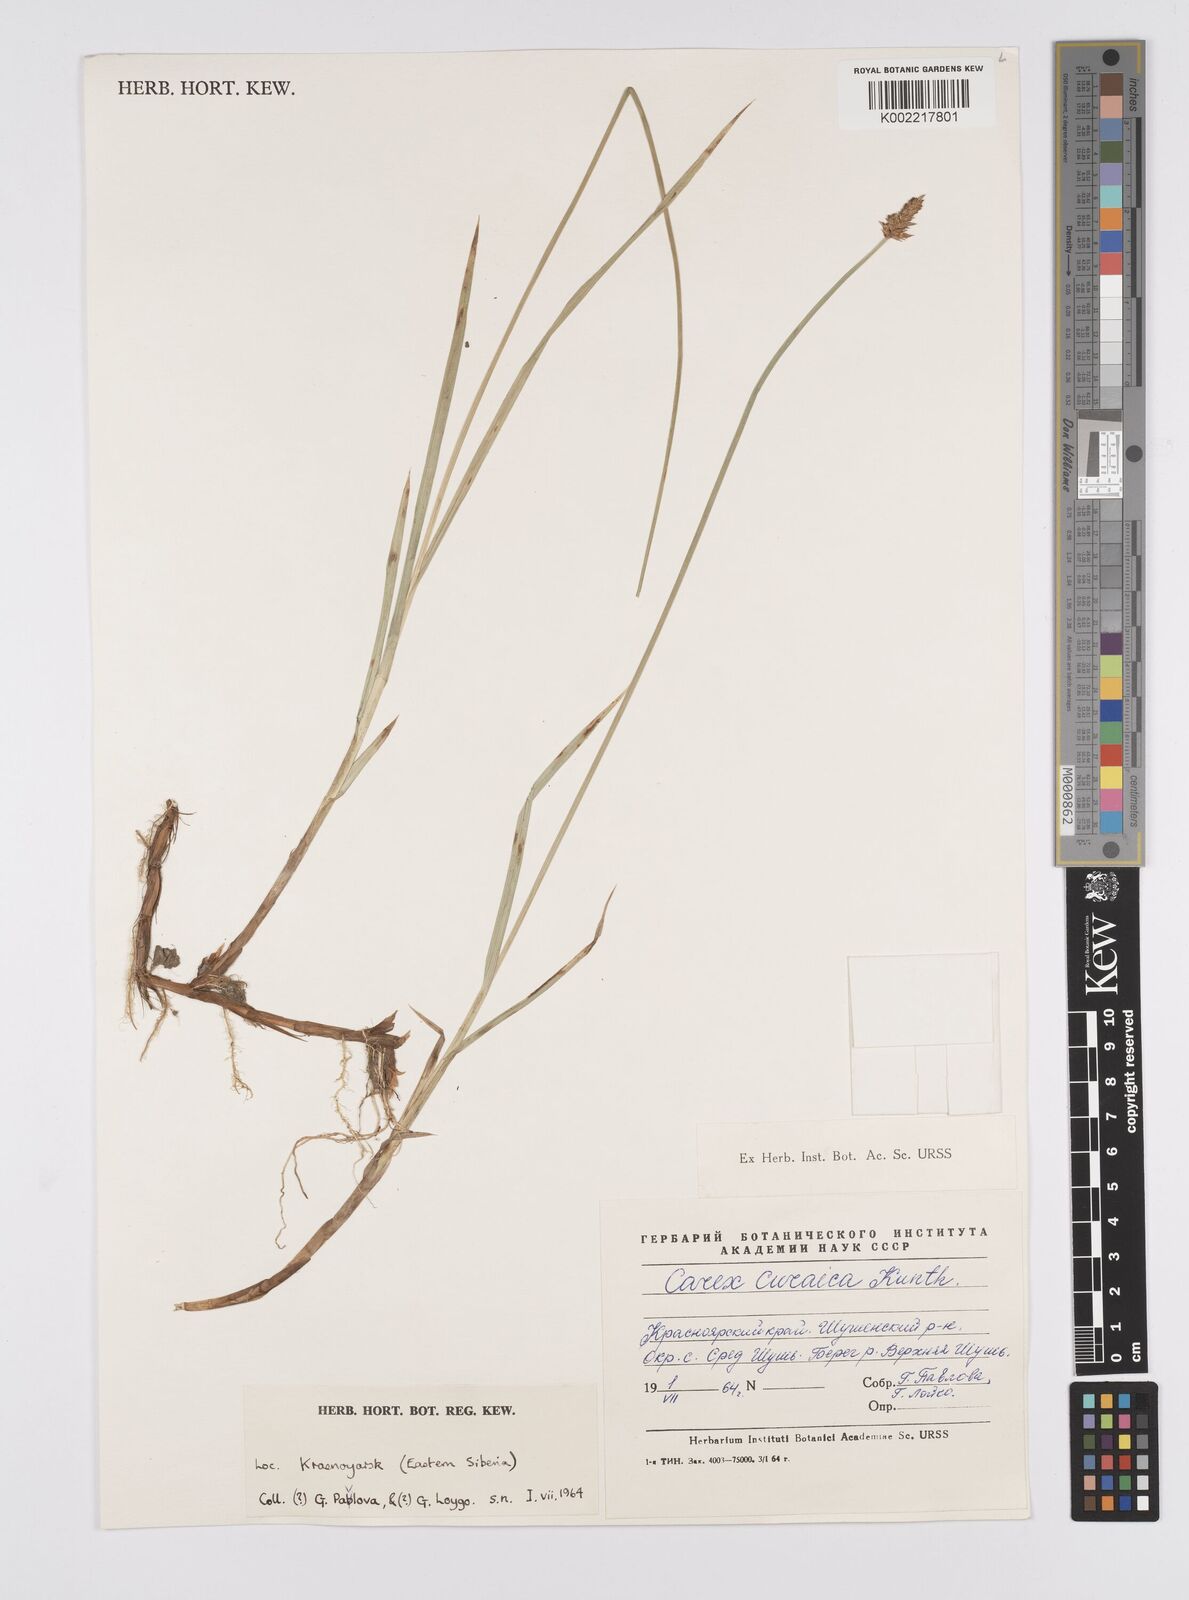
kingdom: Plantae
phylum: Tracheophyta
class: Liliopsida
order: Poales
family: Cyperaceae
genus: Carex
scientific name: Carex curaica
